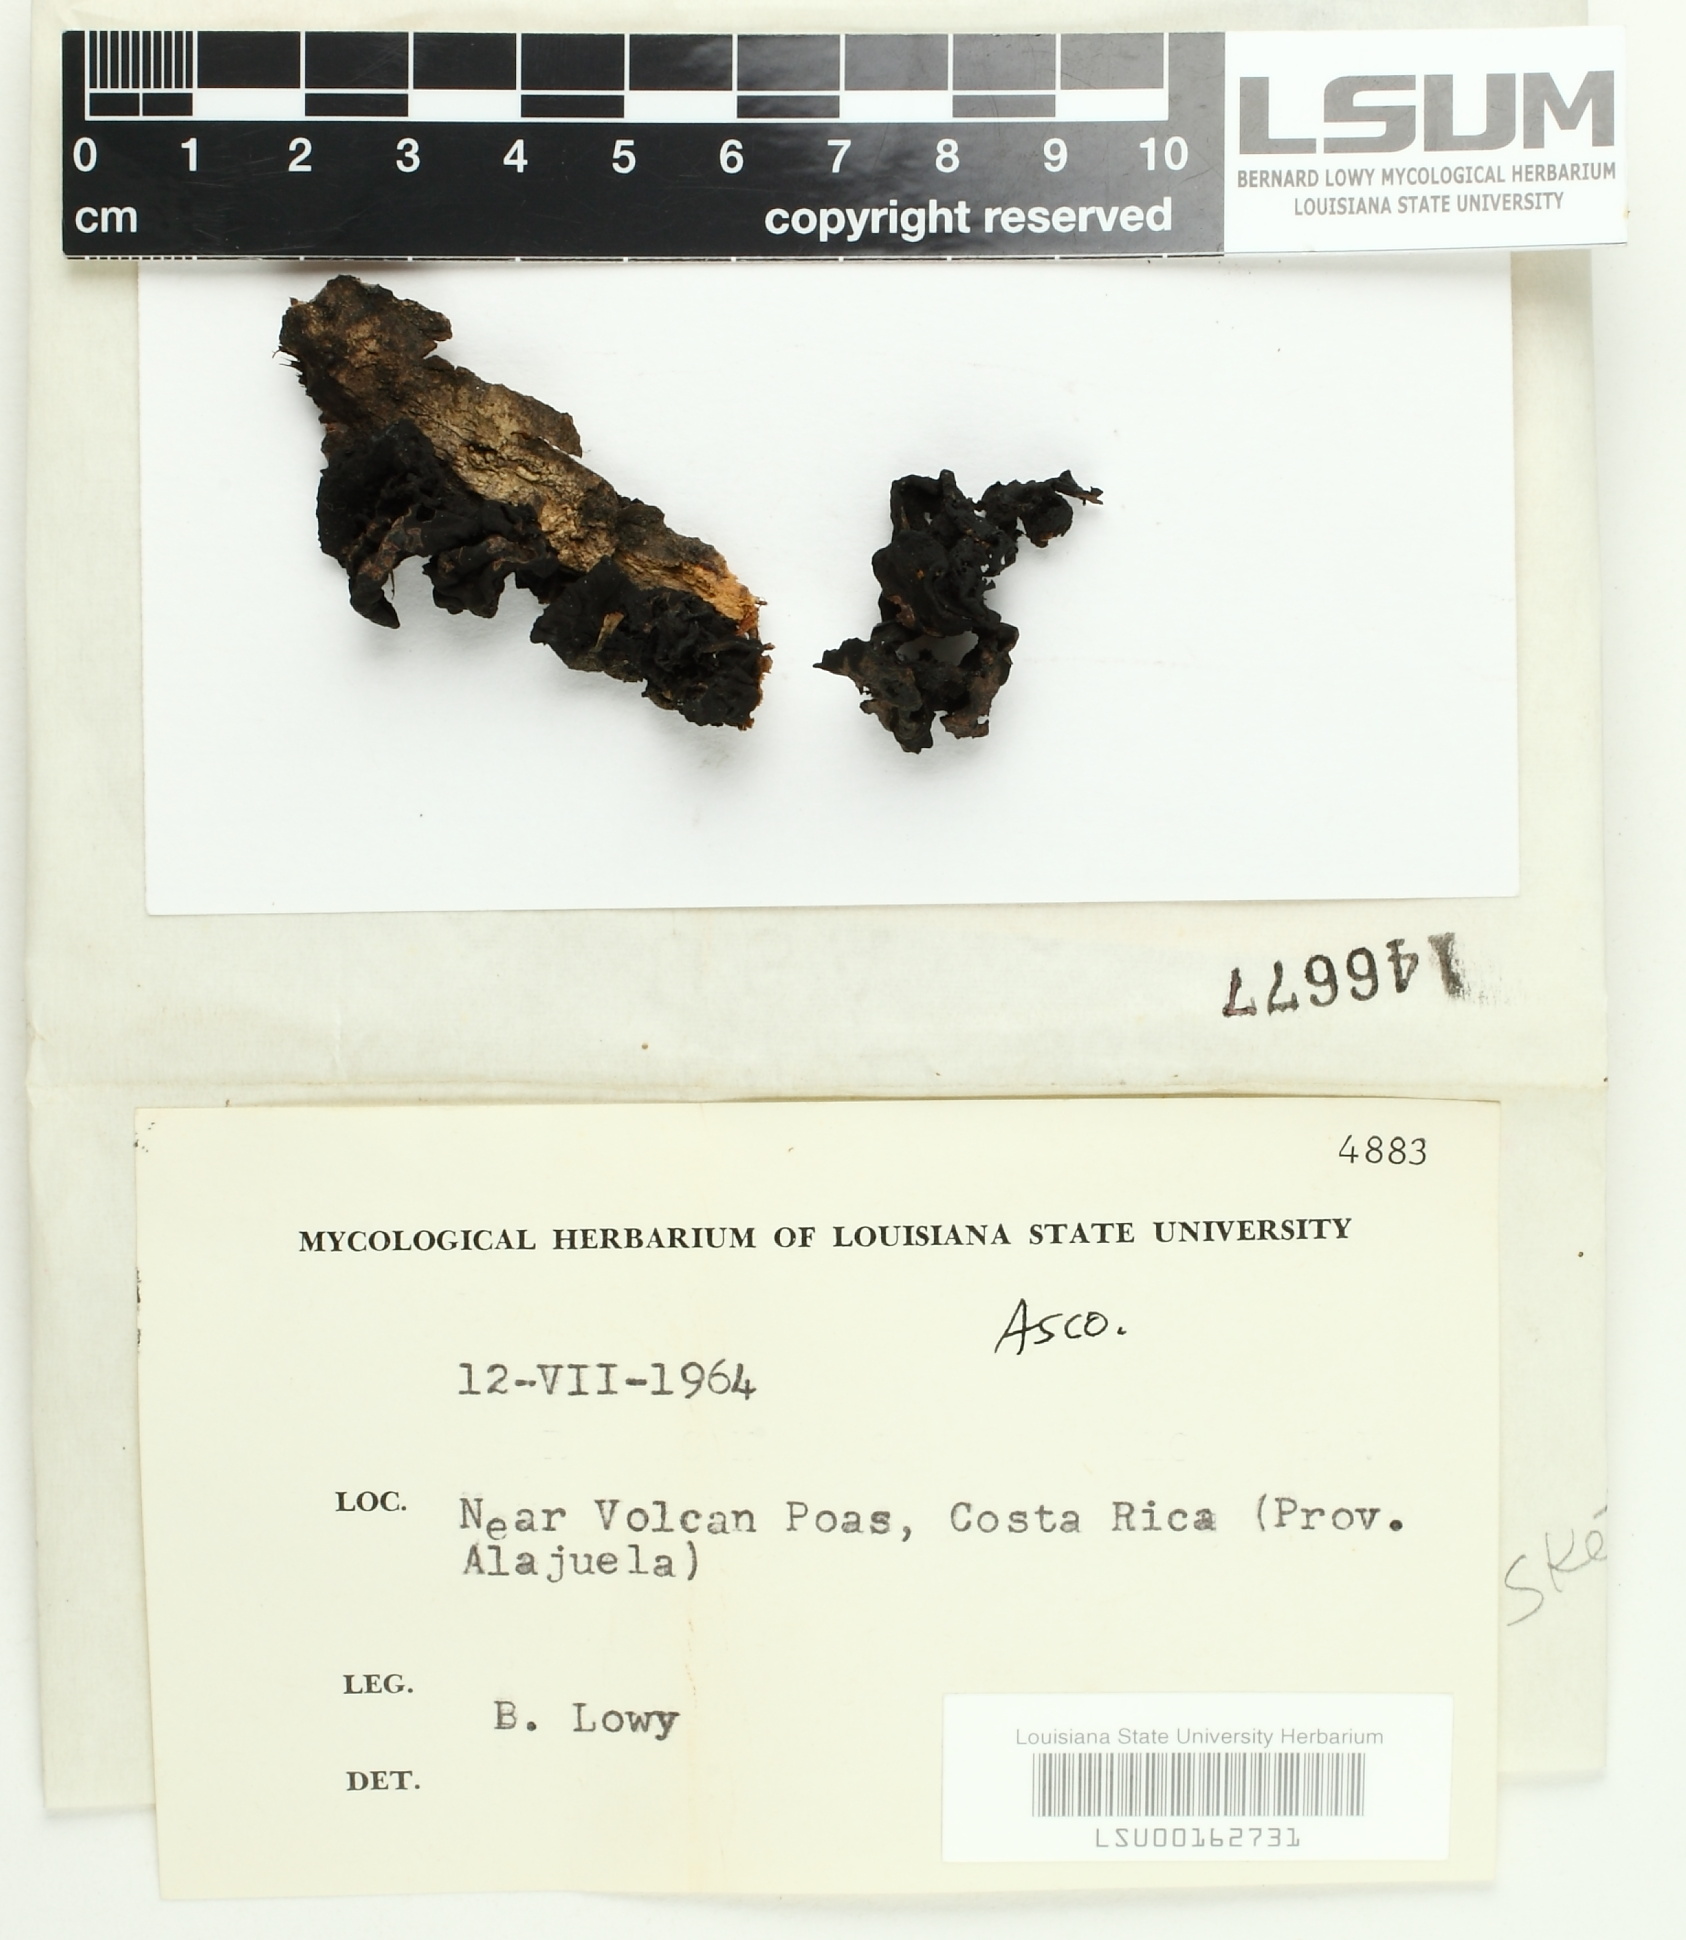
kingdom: Fungi
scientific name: Fungi
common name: Fungi
